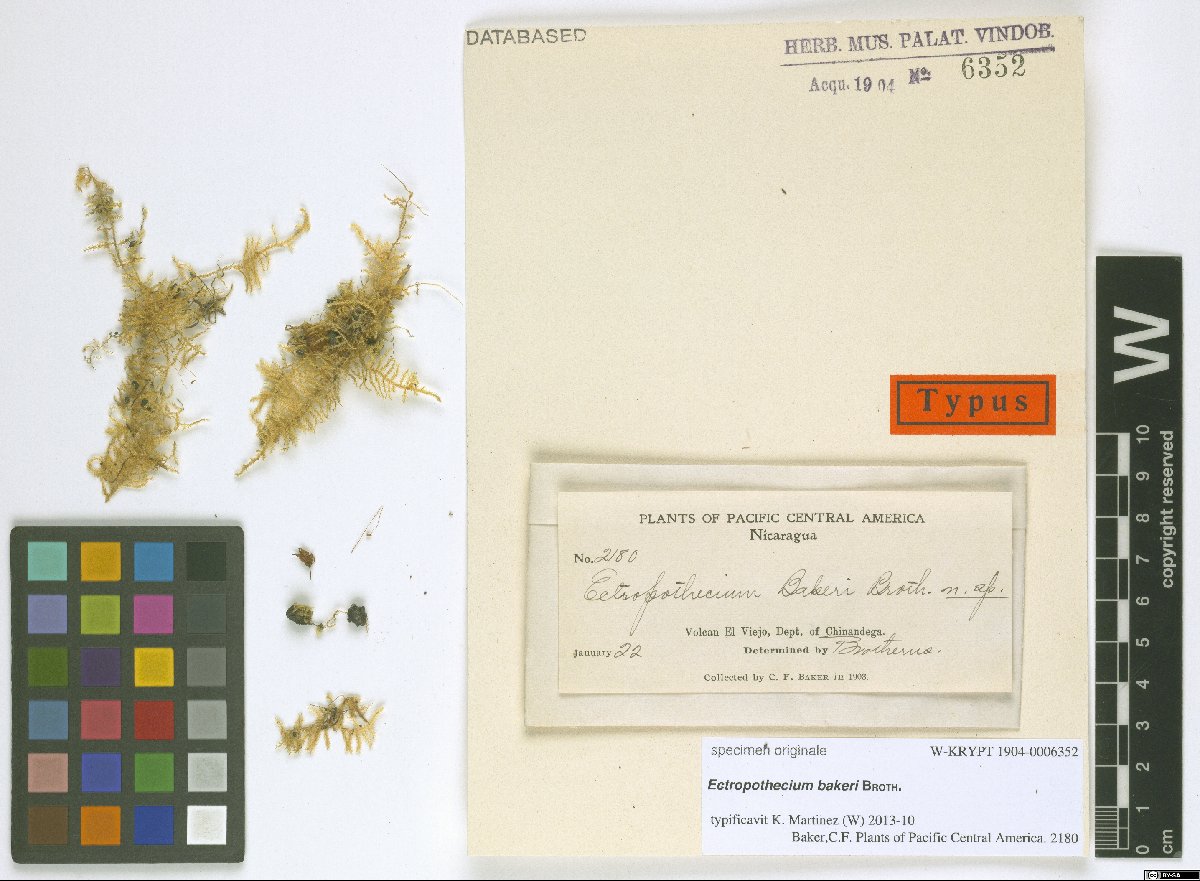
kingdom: Plantae
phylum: Bryophyta
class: Bryopsida
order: Hypnales
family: Hypnaceae
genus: Ectropothecium
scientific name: Ectropothecium
